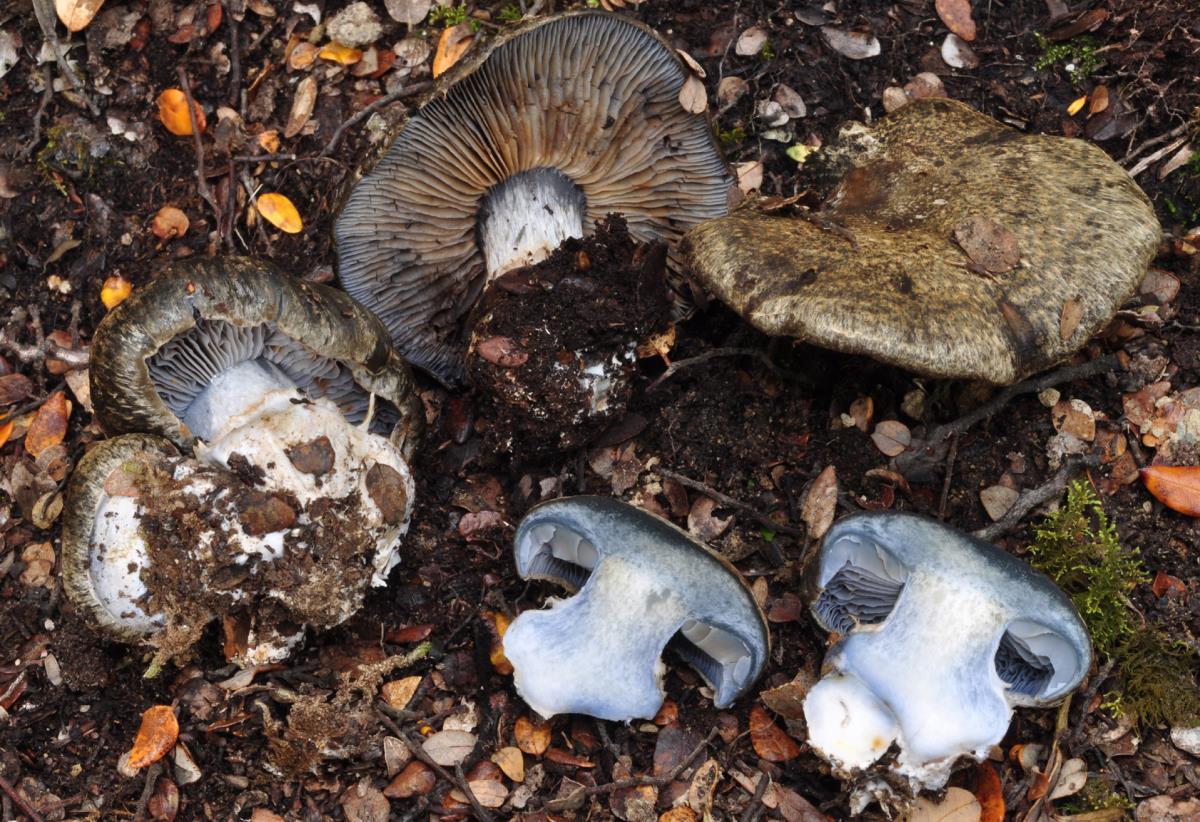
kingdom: Fungi
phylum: Basidiomycota
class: Agaricomycetes
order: Agaricales
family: Cortinariaceae
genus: Thaxterogaster
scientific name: Thaxterogaster austrocyanites
